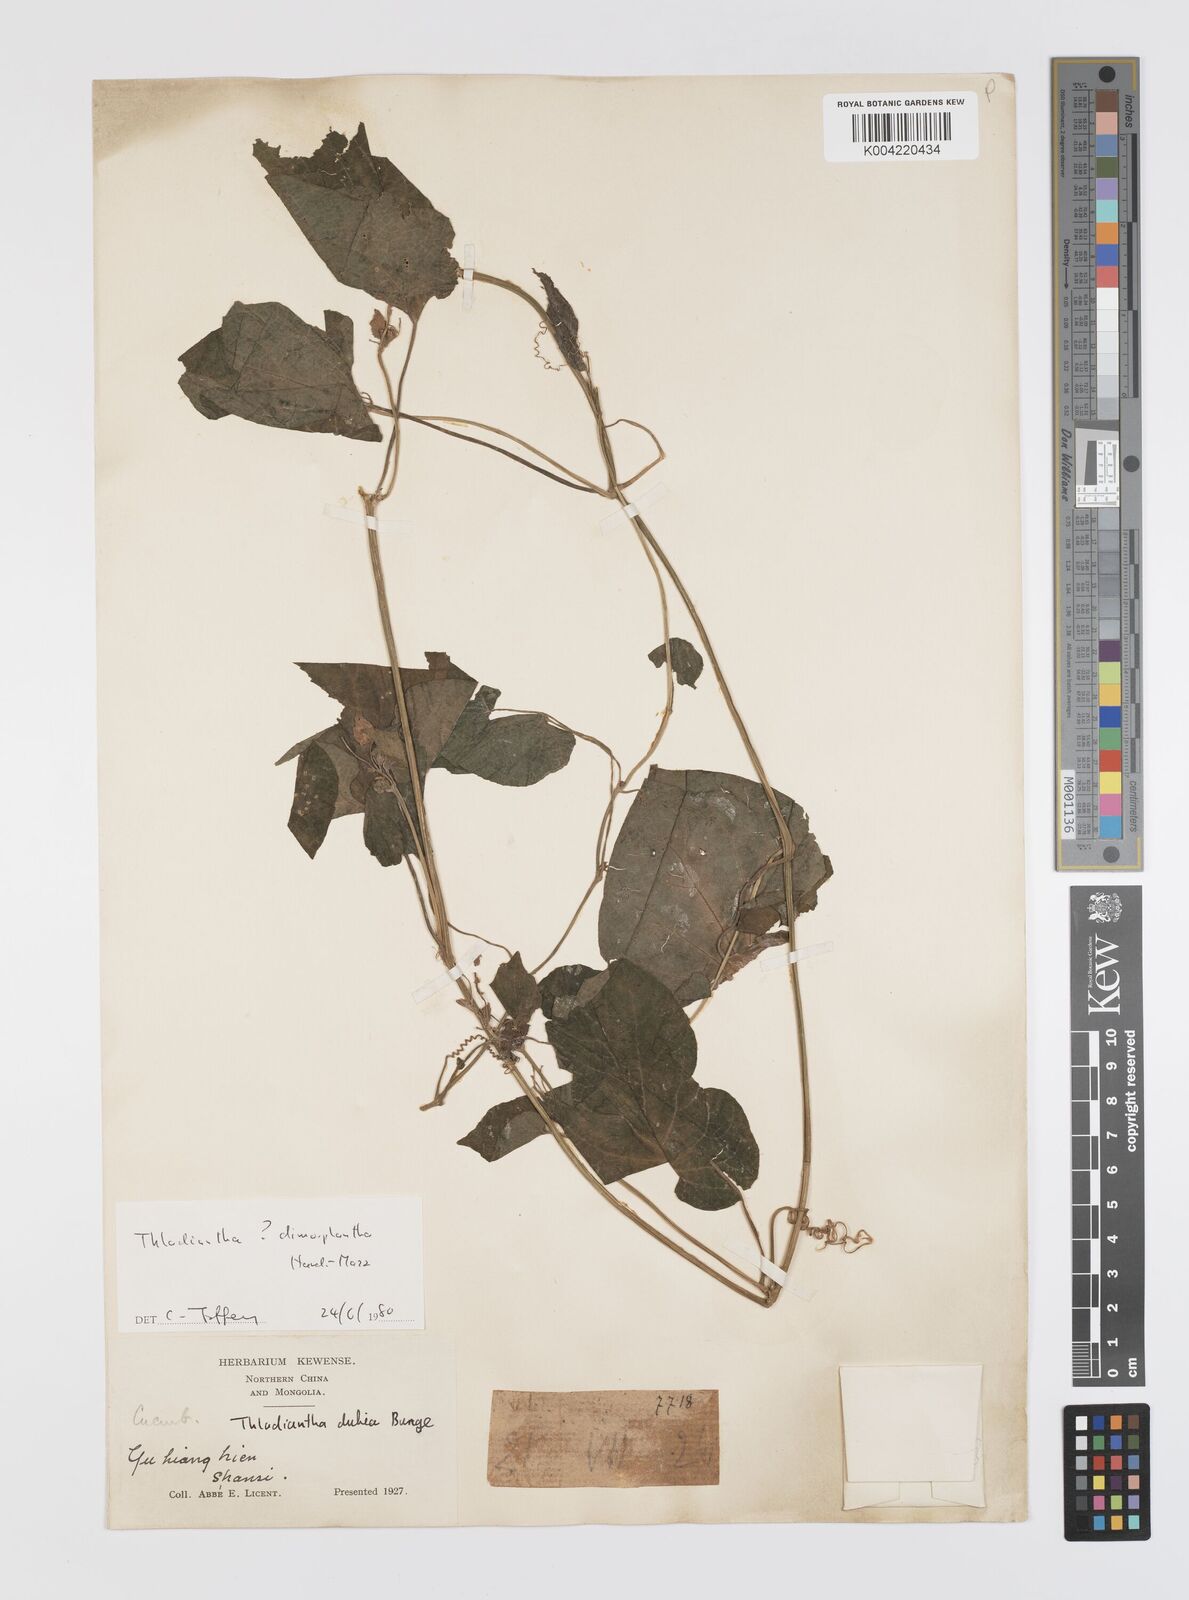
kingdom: Plantae
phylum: Tracheophyta
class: Magnoliopsida
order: Cucurbitales
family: Cucurbitaceae
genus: Thladiantha
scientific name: Thladiantha dimorphantha
